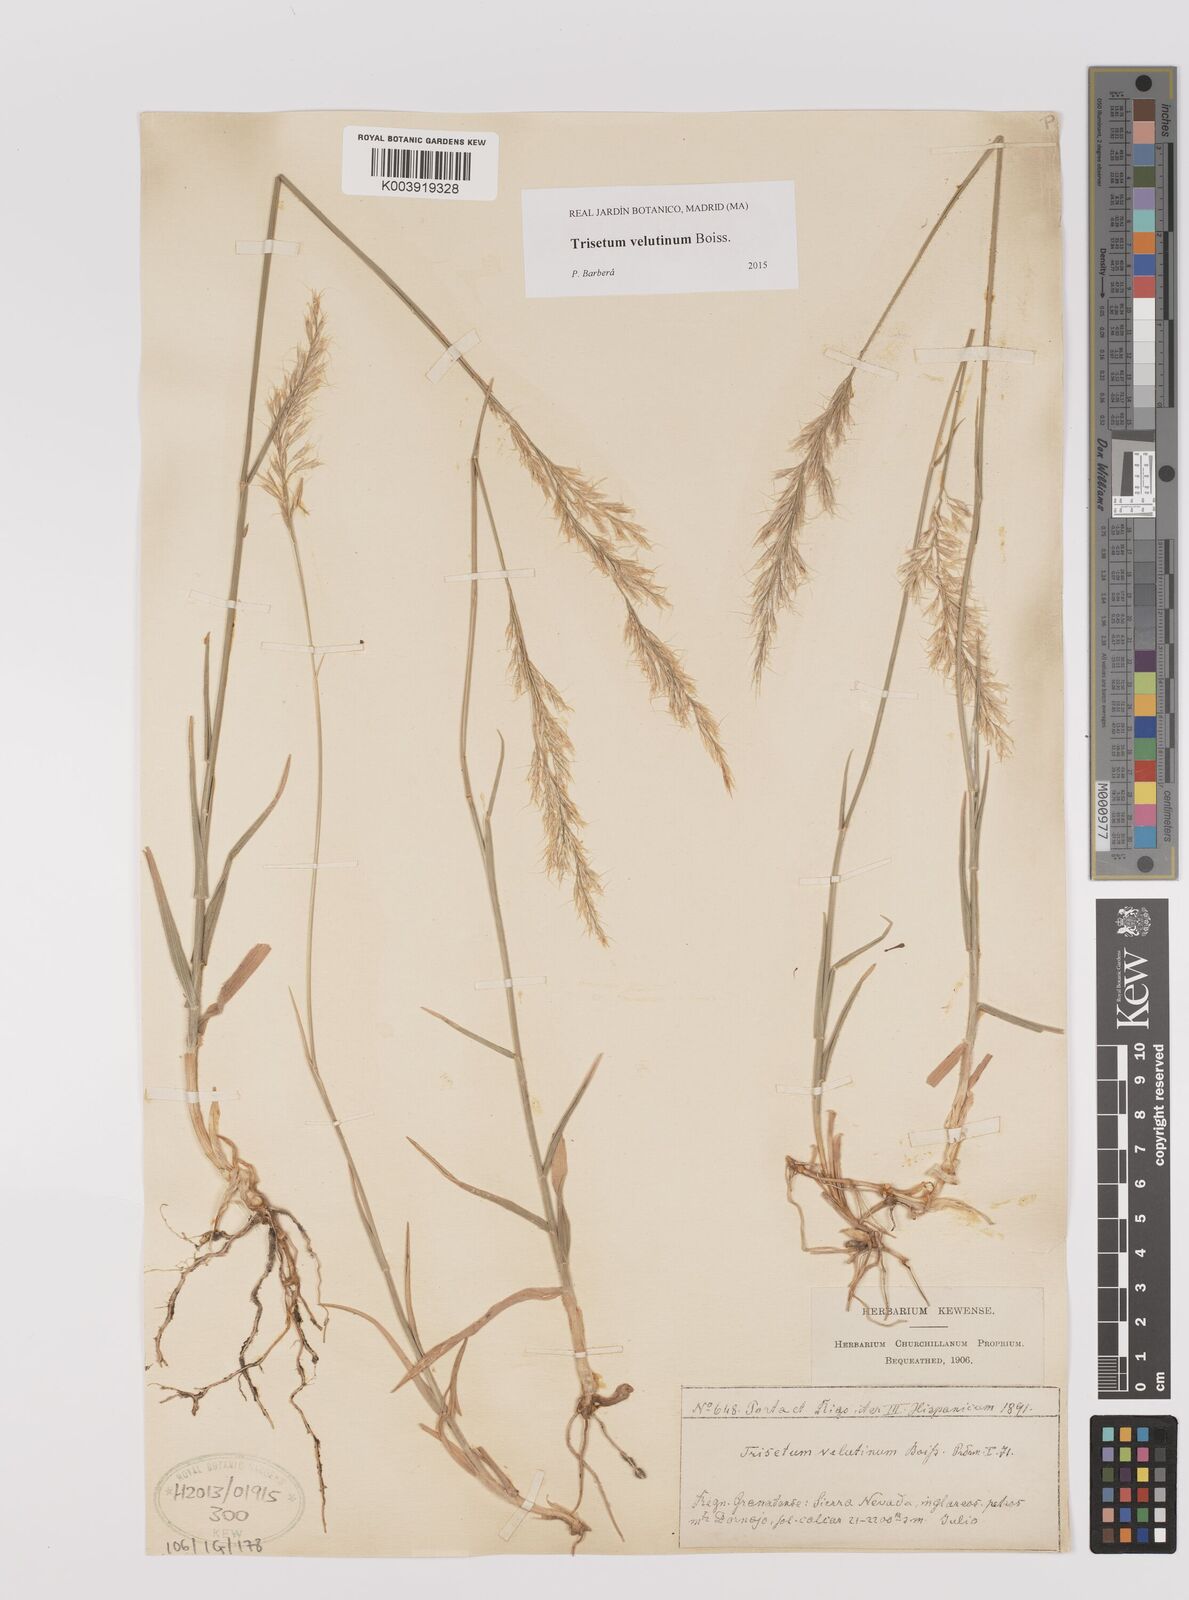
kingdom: Plantae
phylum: Tracheophyta
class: Liliopsida
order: Poales
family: Poaceae
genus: Trisetum
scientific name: Trisetum velutinum
